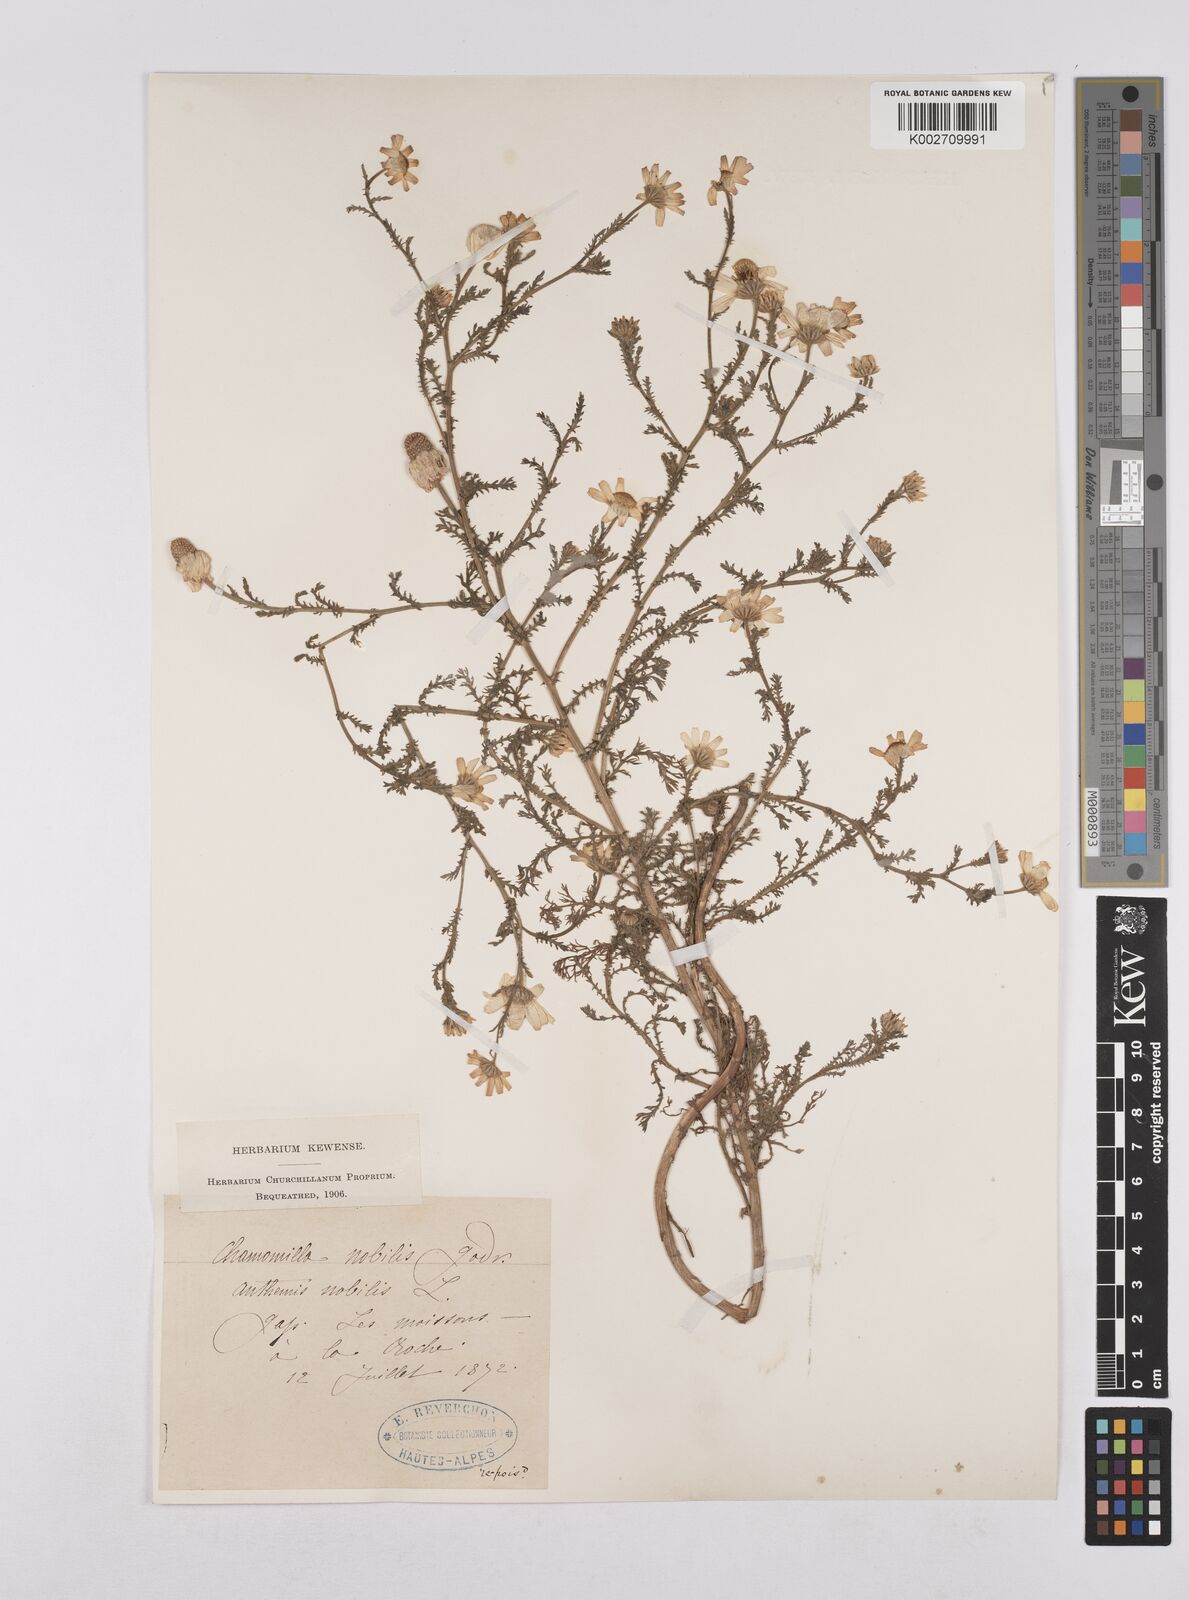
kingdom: Plantae
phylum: Tracheophyta
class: Magnoliopsida
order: Asterales
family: Asteraceae
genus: Chamaemelum
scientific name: Chamaemelum nobile
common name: Roman chamomile
